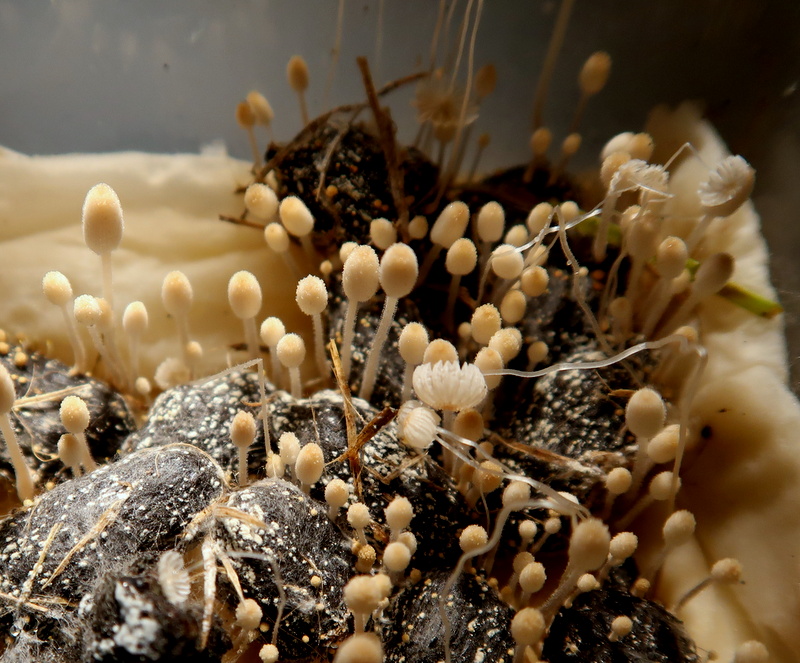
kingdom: Fungi
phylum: Basidiomycota
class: Agaricomycetes
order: Agaricales
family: Psathyrellaceae
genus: Coprinellus
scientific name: Coprinellus
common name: blækhat
